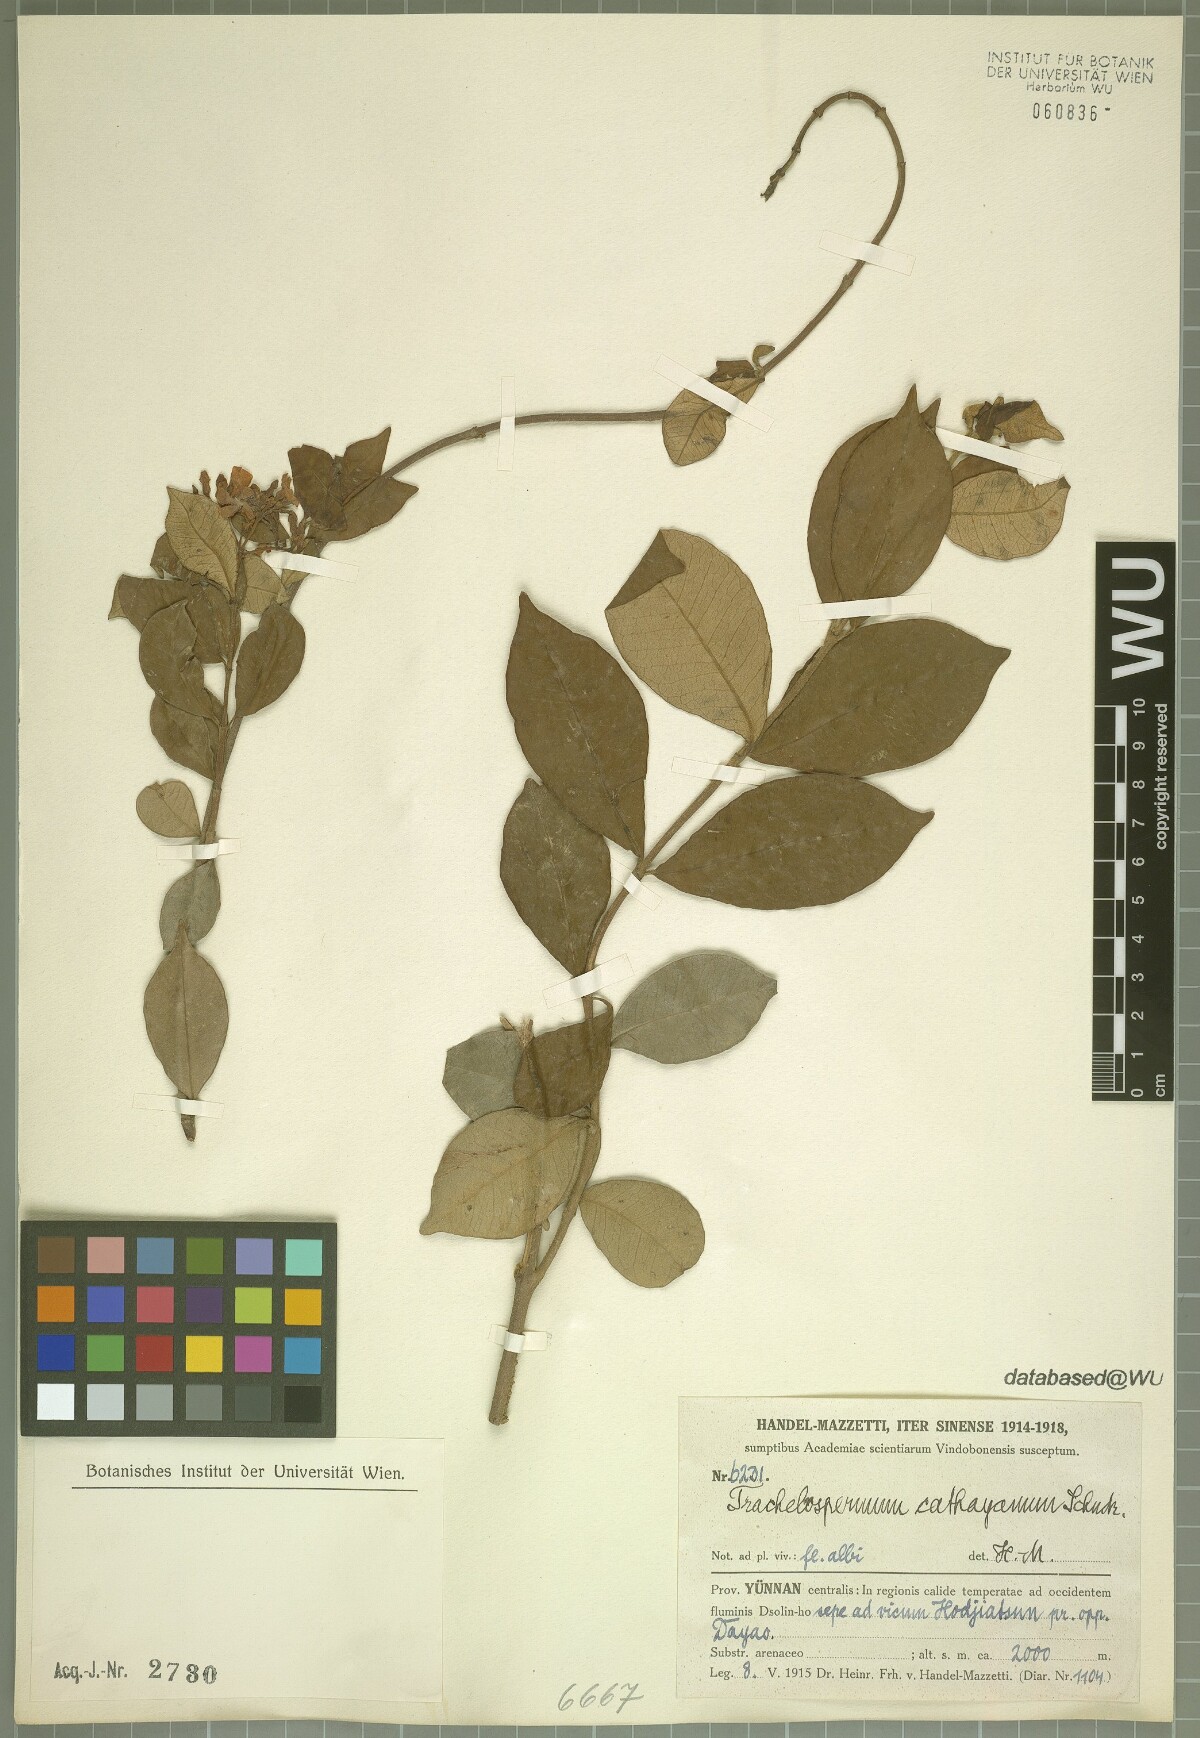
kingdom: Plantae
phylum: Tracheophyta
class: Magnoliopsida
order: Gentianales
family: Apocynaceae
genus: Trachelospermum
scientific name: Trachelospermum bodinieri
